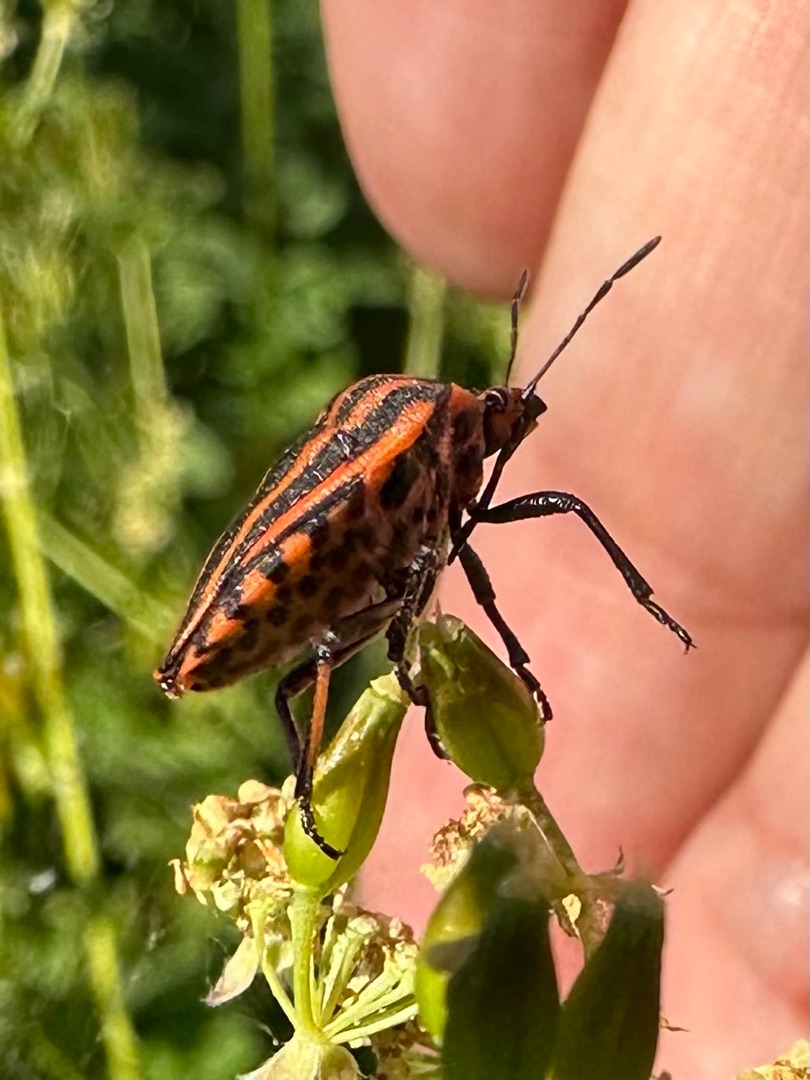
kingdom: Animalia
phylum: Arthropoda
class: Insecta
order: Hemiptera
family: Pentatomidae
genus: Graphosoma
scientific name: Graphosoma italicum
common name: Stribetæge
